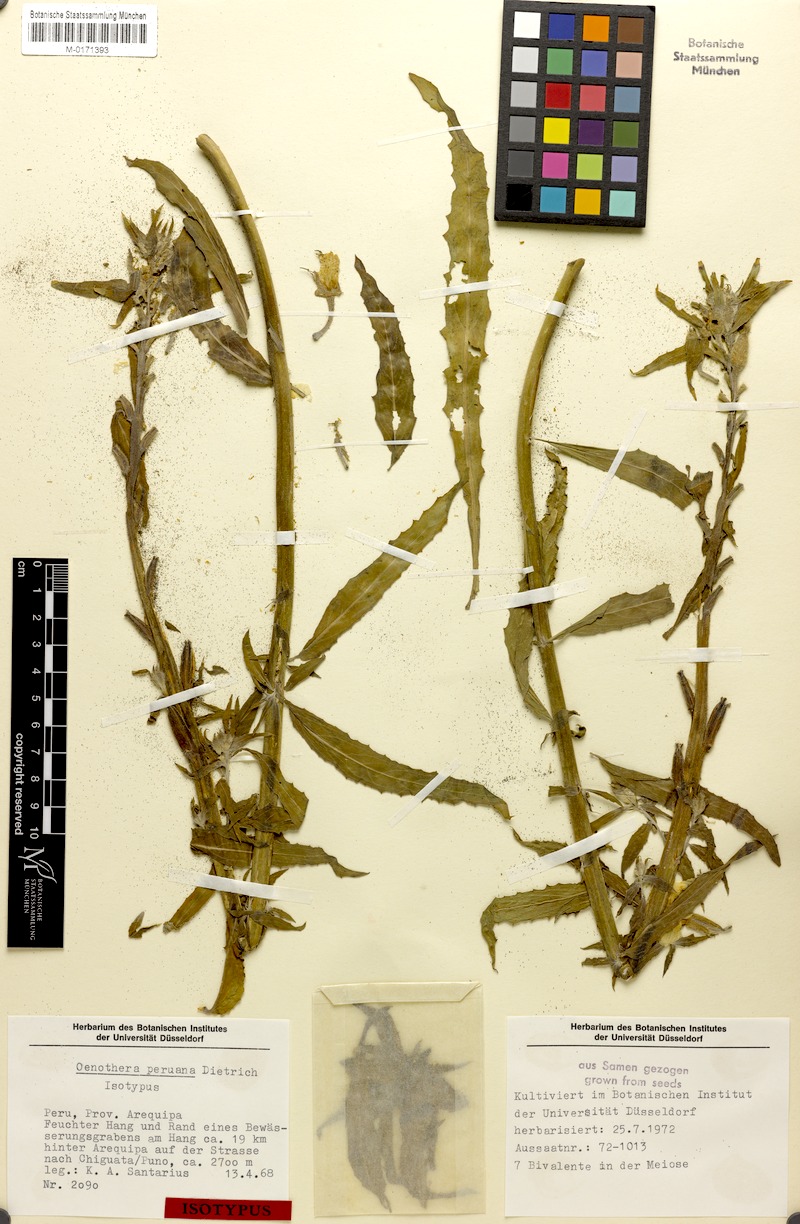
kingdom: Plantae
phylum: Tracheophyta
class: Magnoliopsida
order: Myrtales
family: Onagraceae
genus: Oenothera
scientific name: Oenothera peruana
